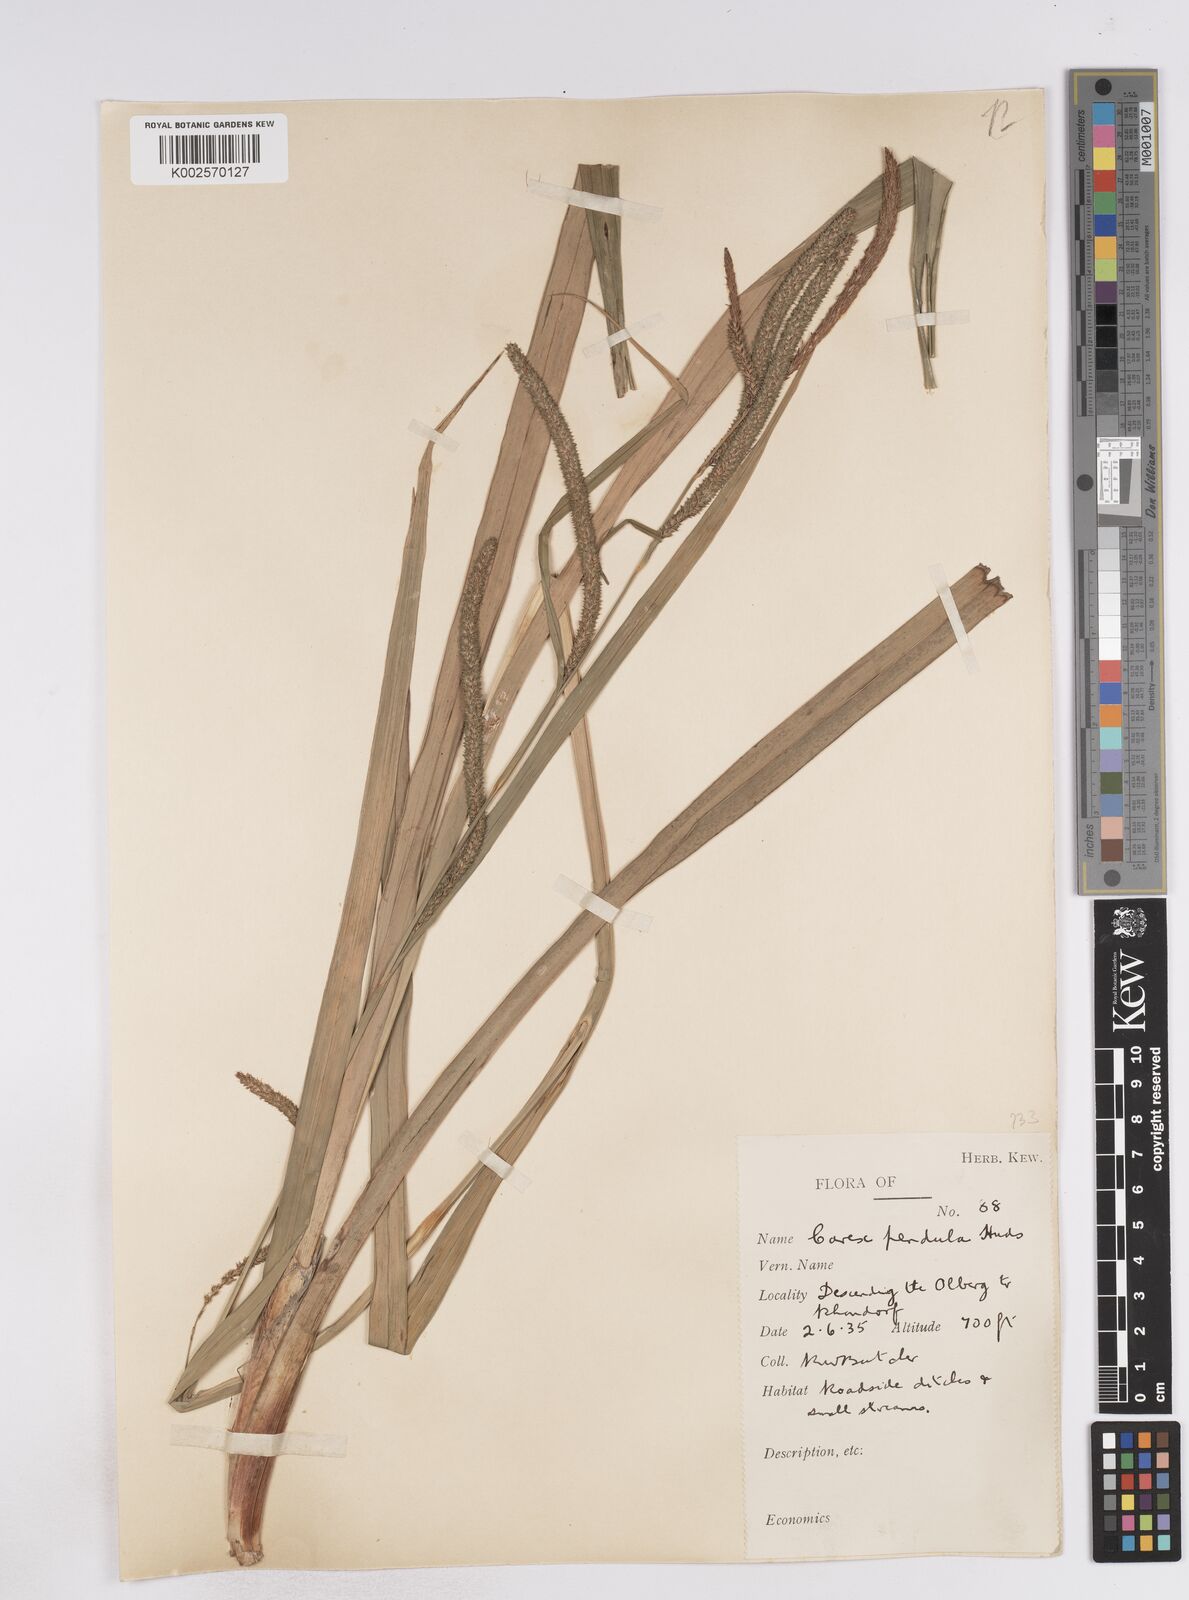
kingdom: Plantae
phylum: Tracheophyta
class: Liliopsida
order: Poales
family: Cyperaceae
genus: Carex
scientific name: Carex pendula
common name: Pendulous sedge
